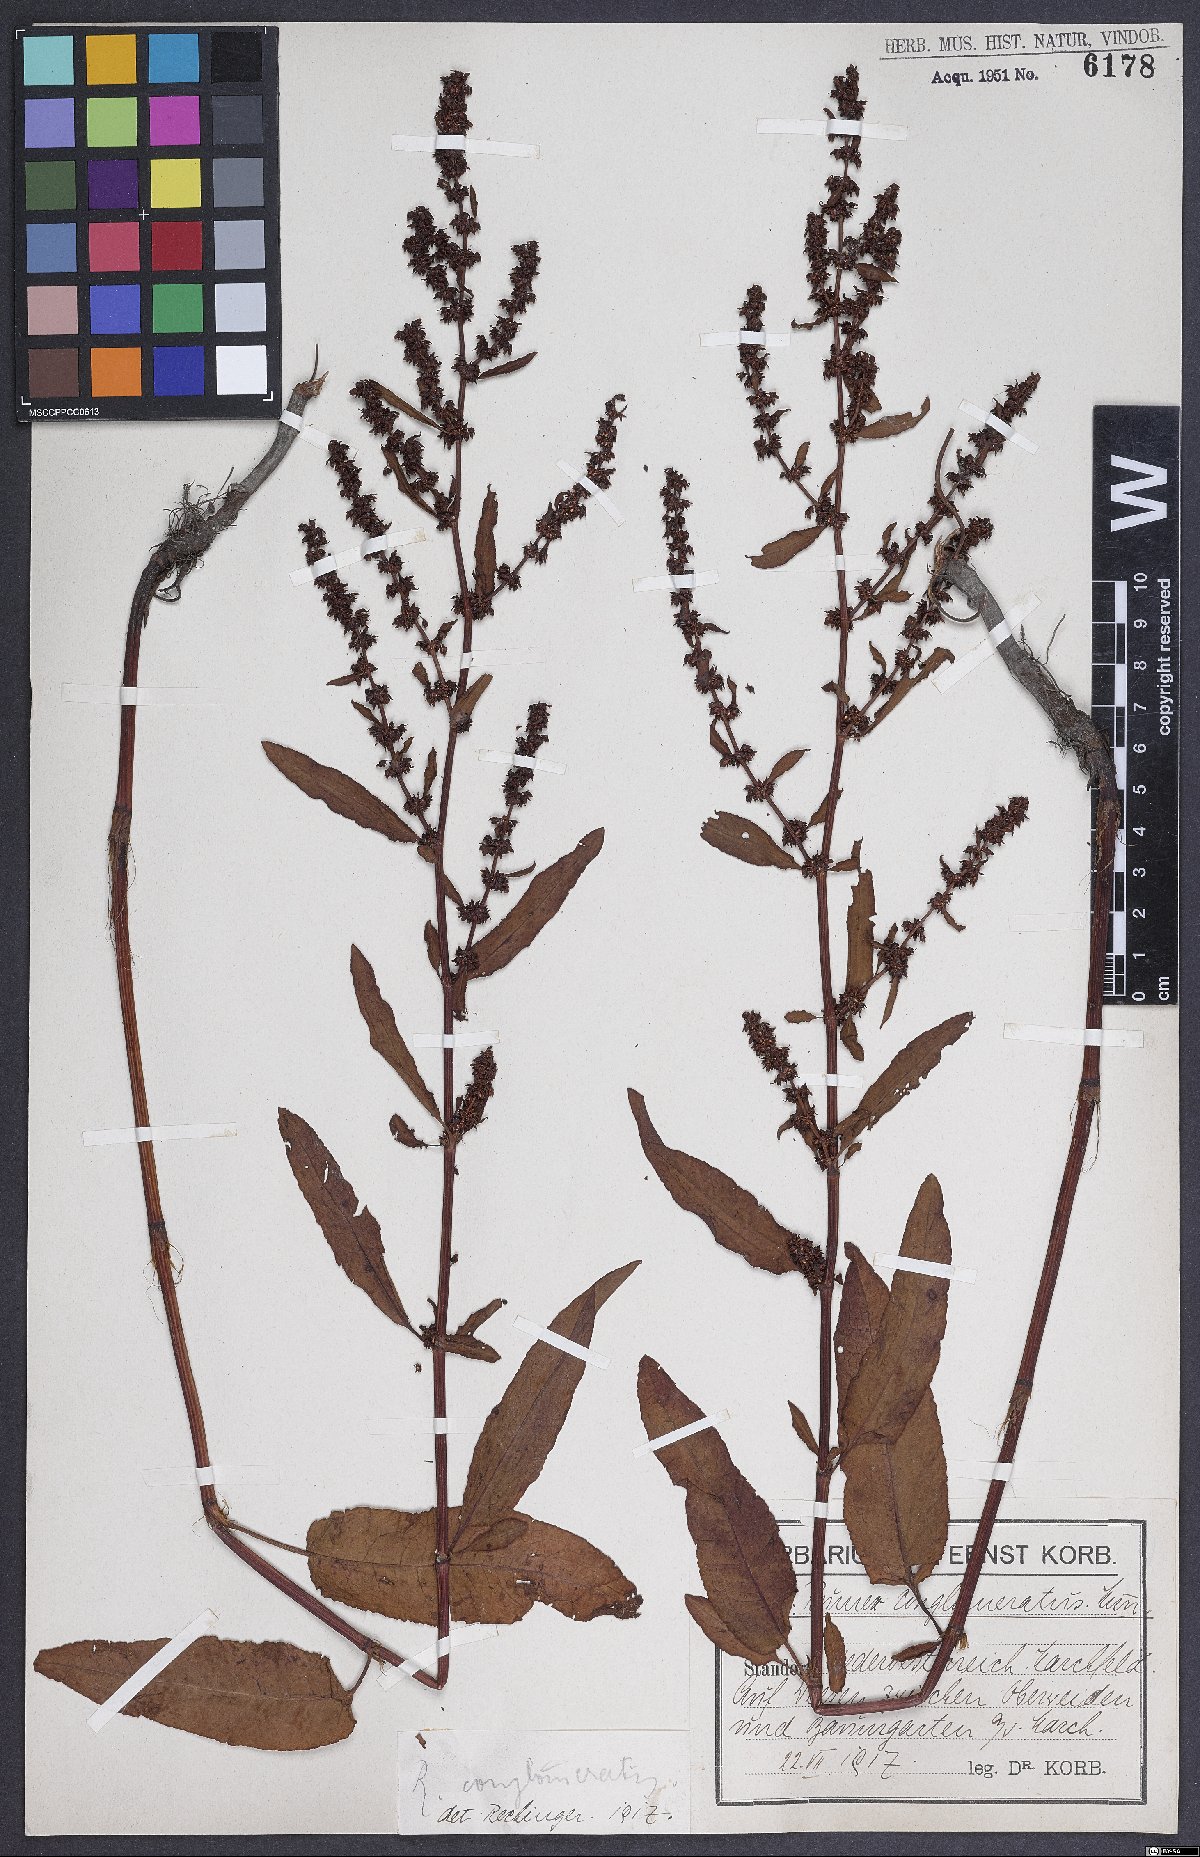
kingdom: Plantae
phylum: Tracheophyta
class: Magnoliopsida
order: Caryophyllales
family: Polygonaceae
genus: Rumex
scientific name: Rumex conglomeratus
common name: Clustered dock
